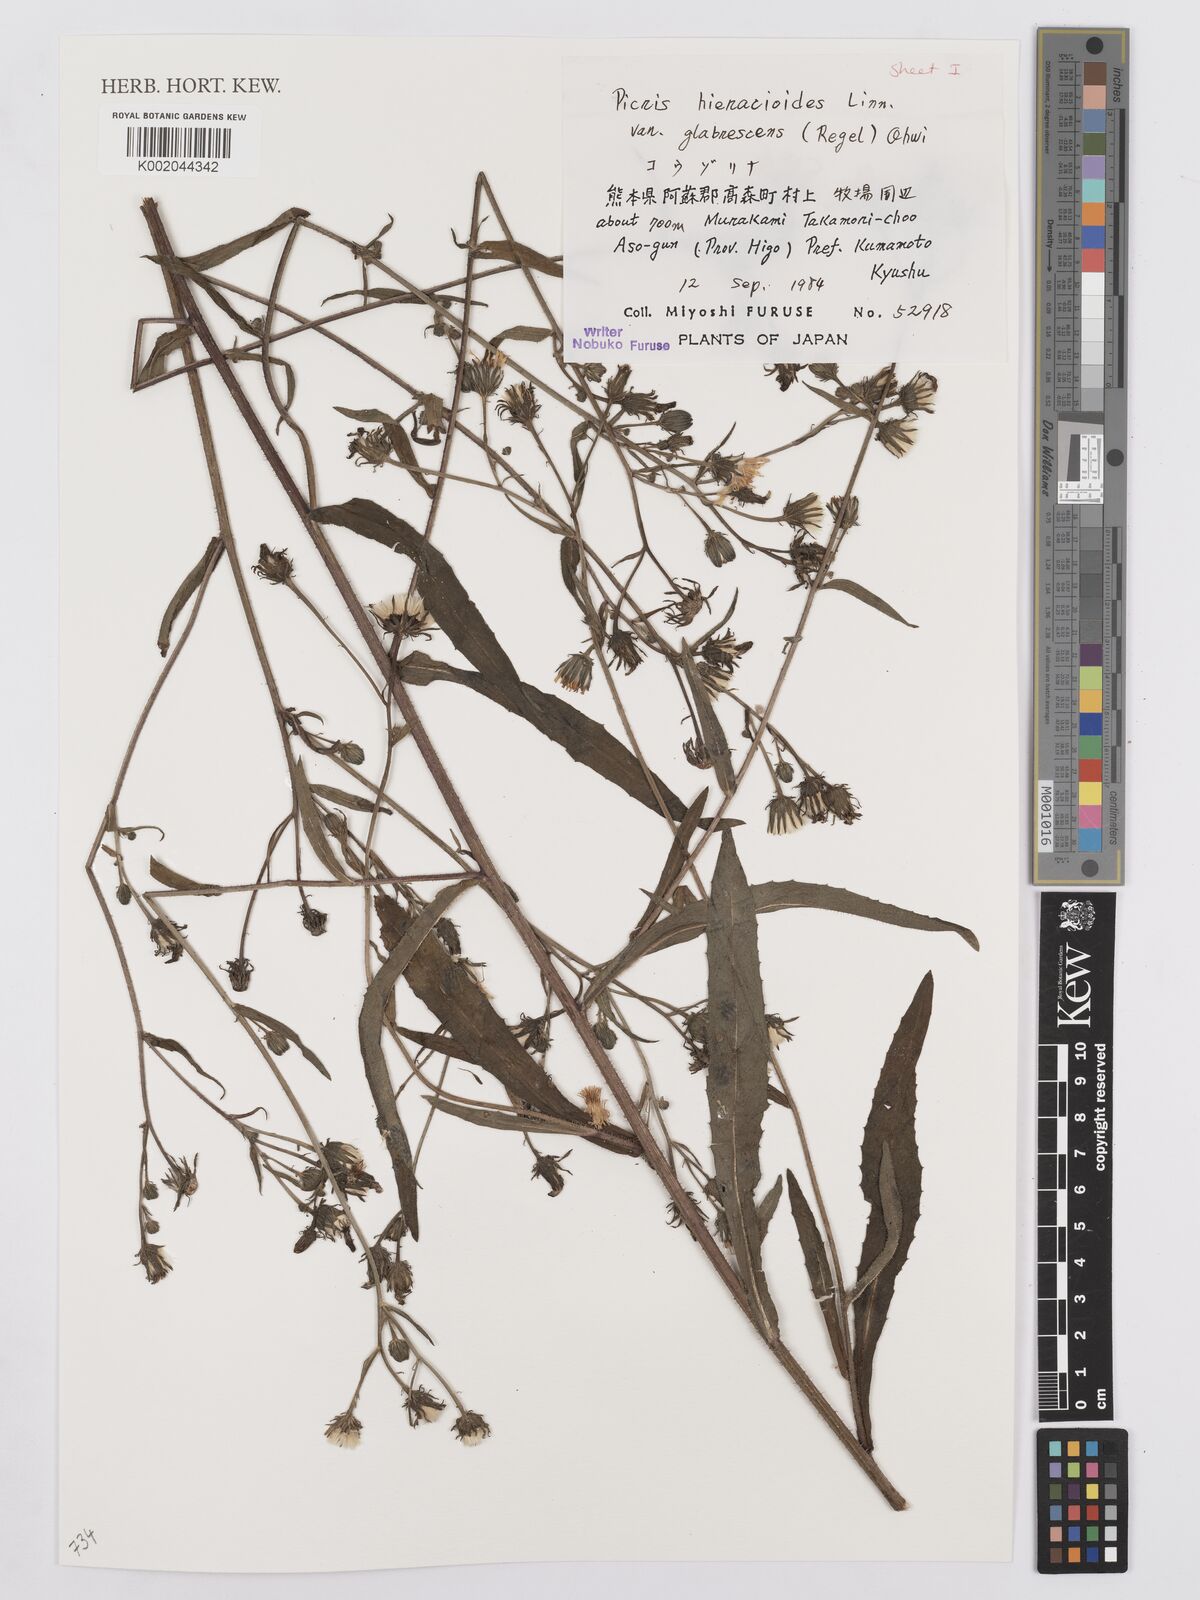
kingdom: Plantae
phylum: Tracheophyta
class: Magnoliopsida
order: Asterales
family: Asteraceae
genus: Picris
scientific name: Picris hieracioides
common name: Hawkweed oxtongue
